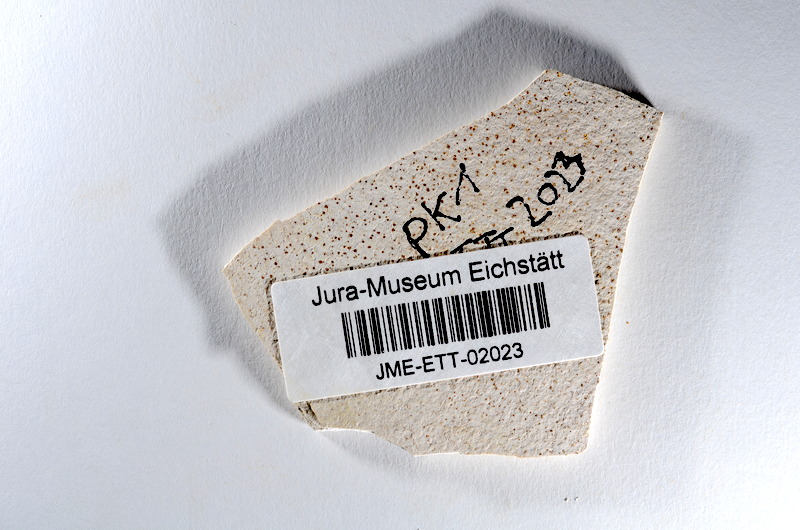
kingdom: Animalia
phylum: Chordata
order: Salmoniformes
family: Orthogonikleithridae
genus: Orthogonikleithrus
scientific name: Orthogonikleithrus hoelli
